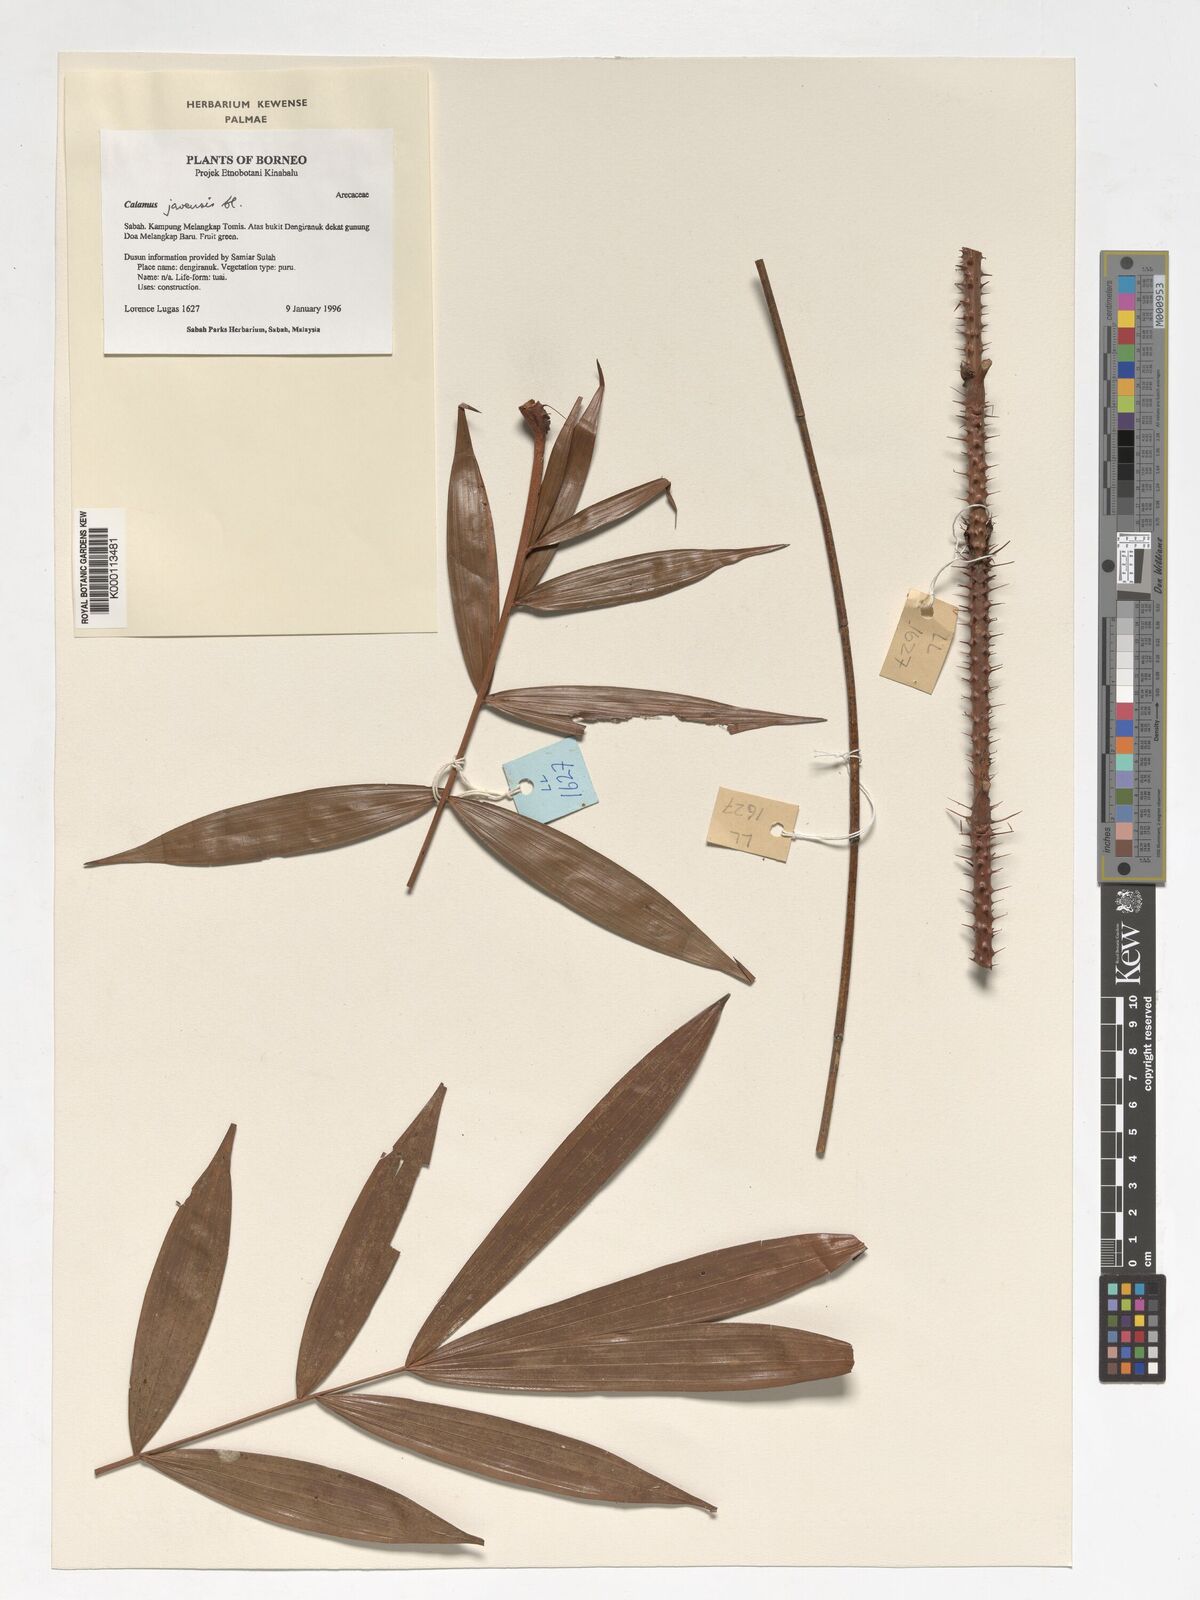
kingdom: Plantae
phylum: Tracheophyta
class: Liliopsida
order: Arecales
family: Arecaceae
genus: Calamus
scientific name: Calamus javensis
